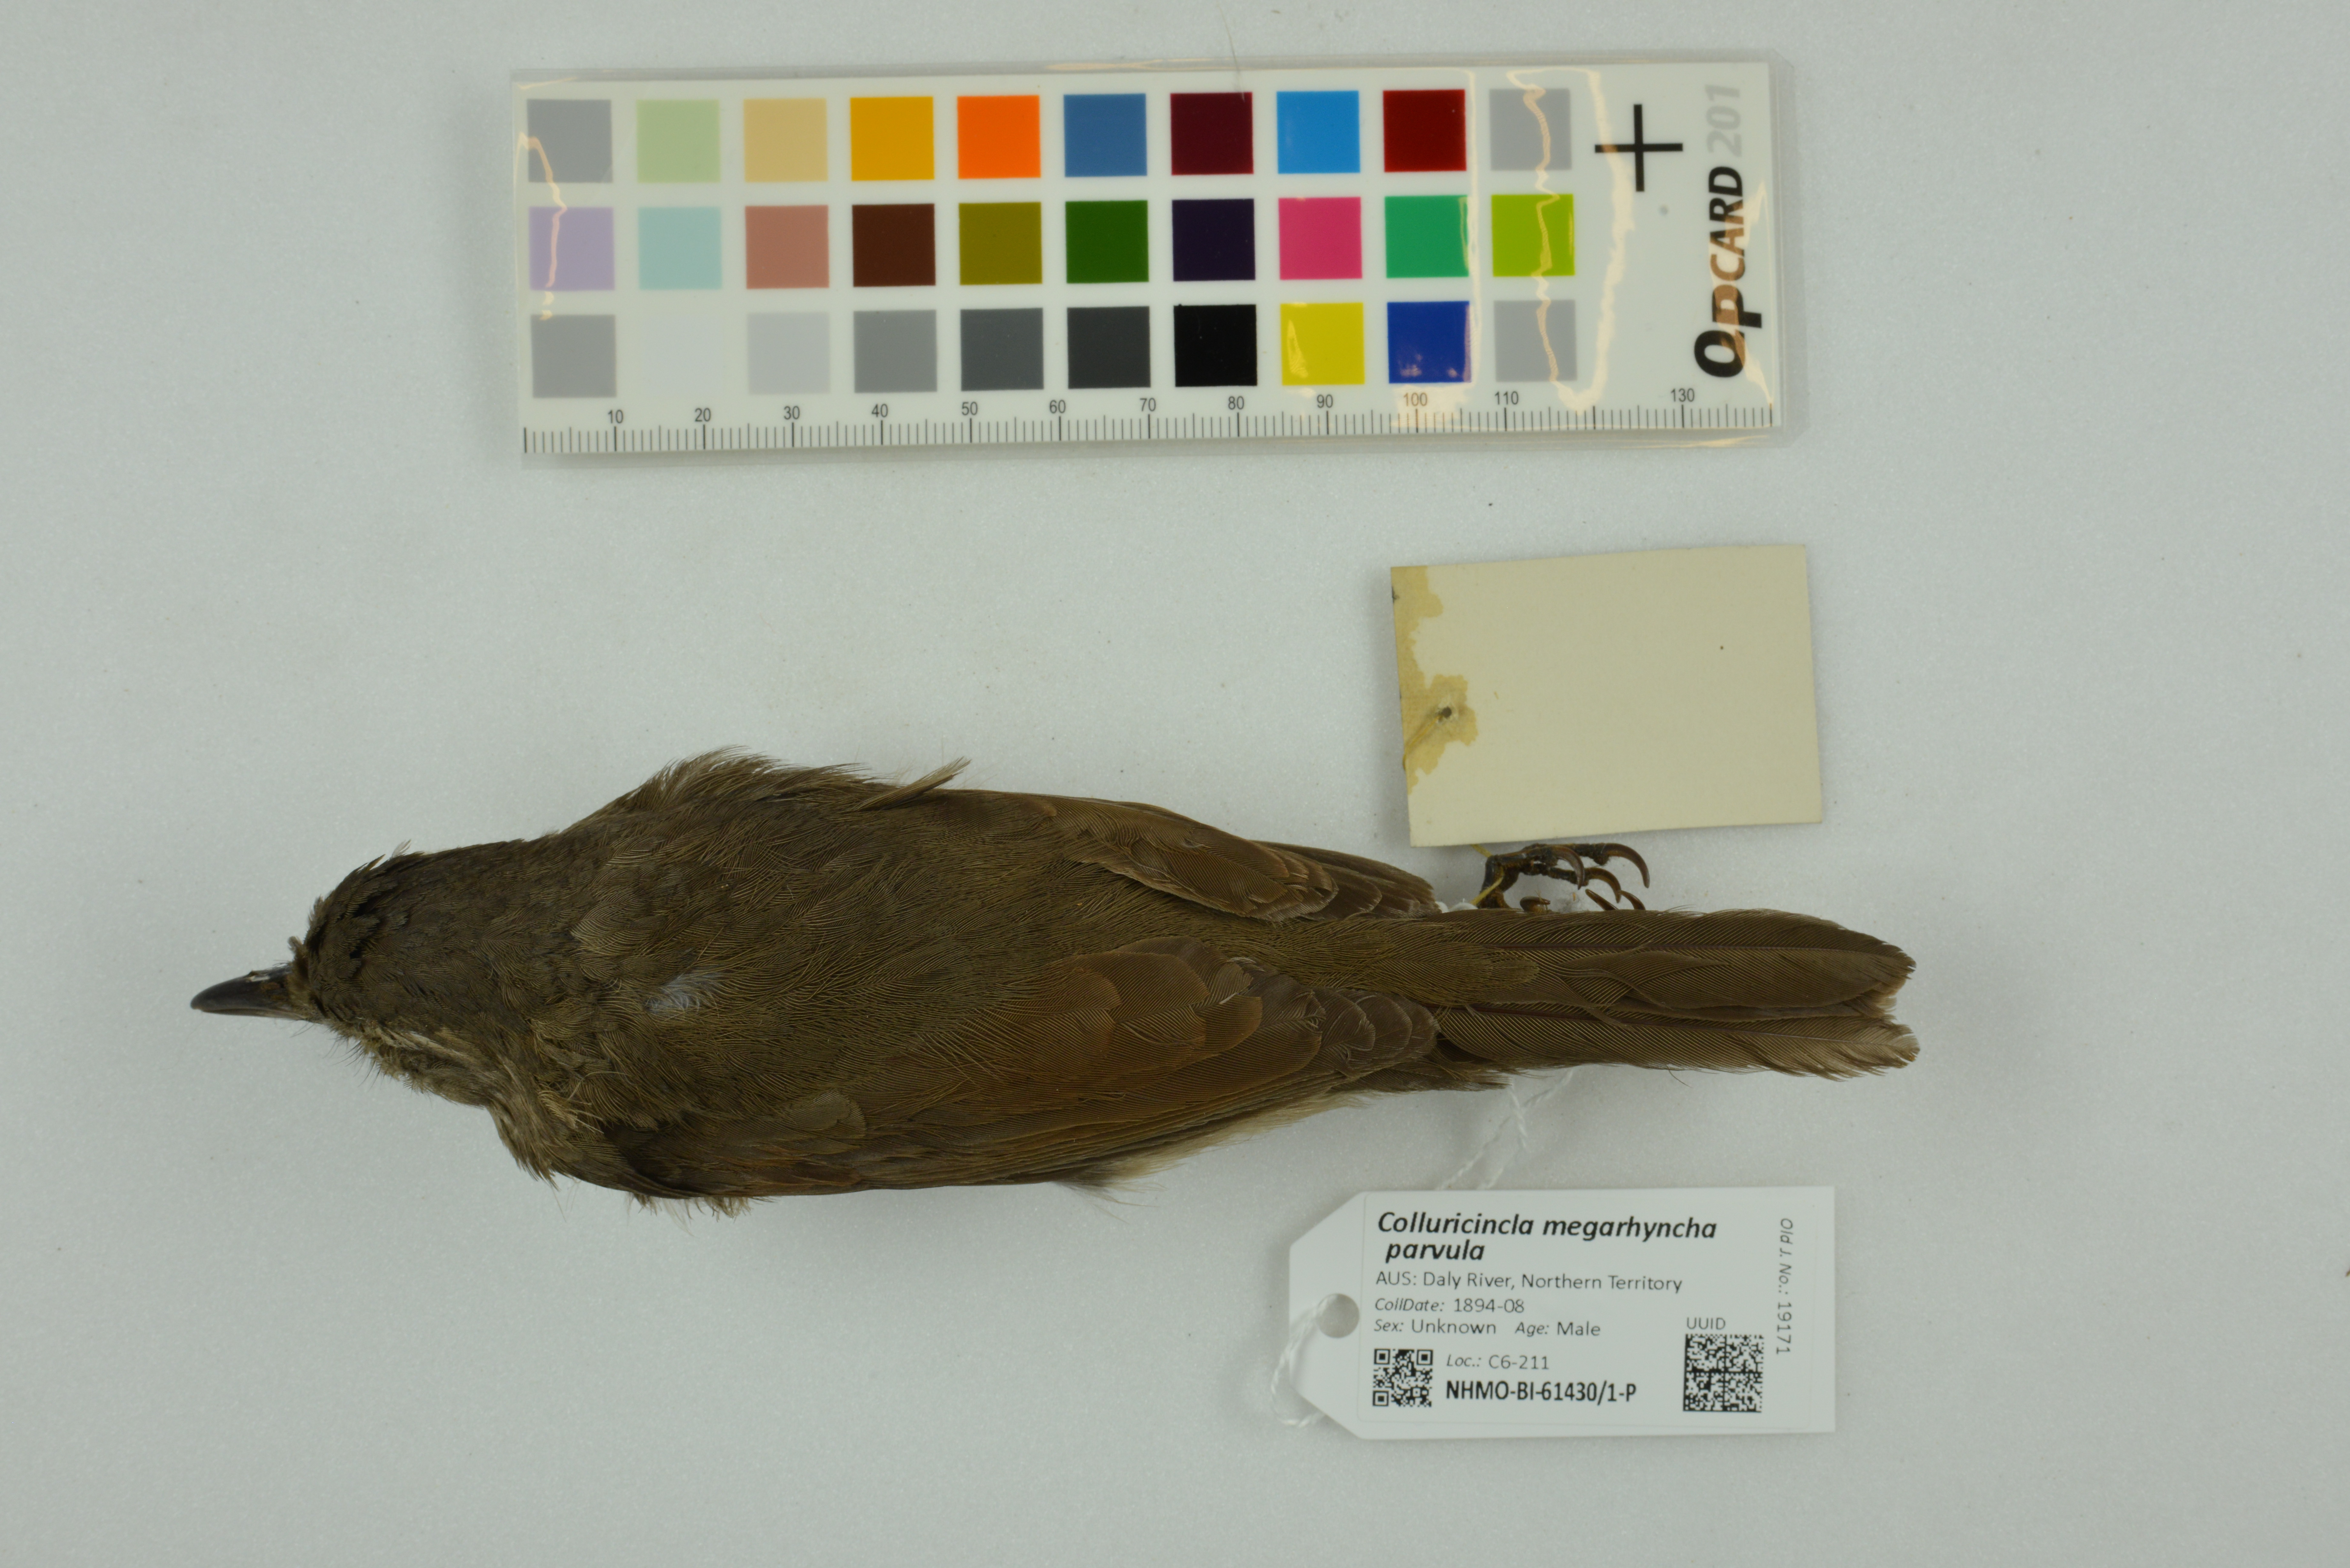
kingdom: Animalia
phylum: Chordata
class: Aves
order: Passeriformes
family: Pachycephalidae
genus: Colluricincla
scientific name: Colluricincla megarhyncha
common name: Little shrikethrush
